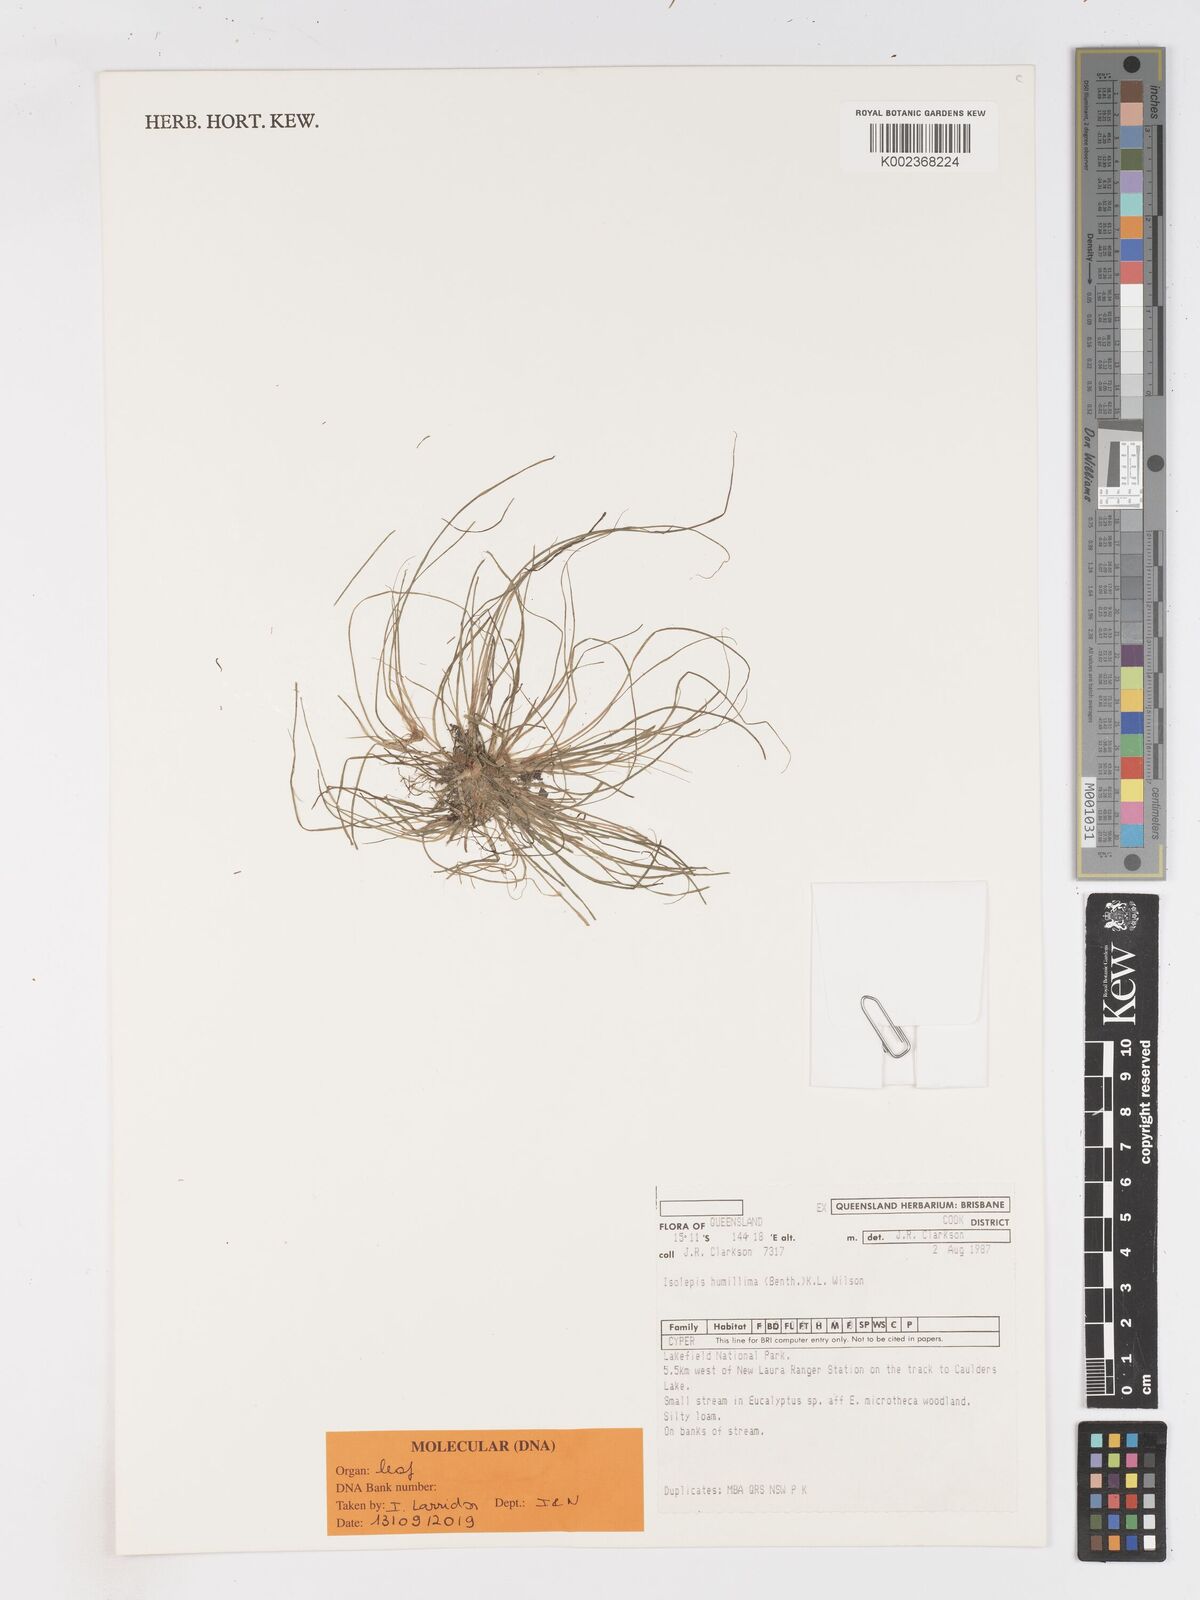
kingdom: Plantae
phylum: Tracheophyta
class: Liliopsida
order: Poales
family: Cyperaceae
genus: Schoenoplectiella
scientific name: Schoenoplectiella humillima
